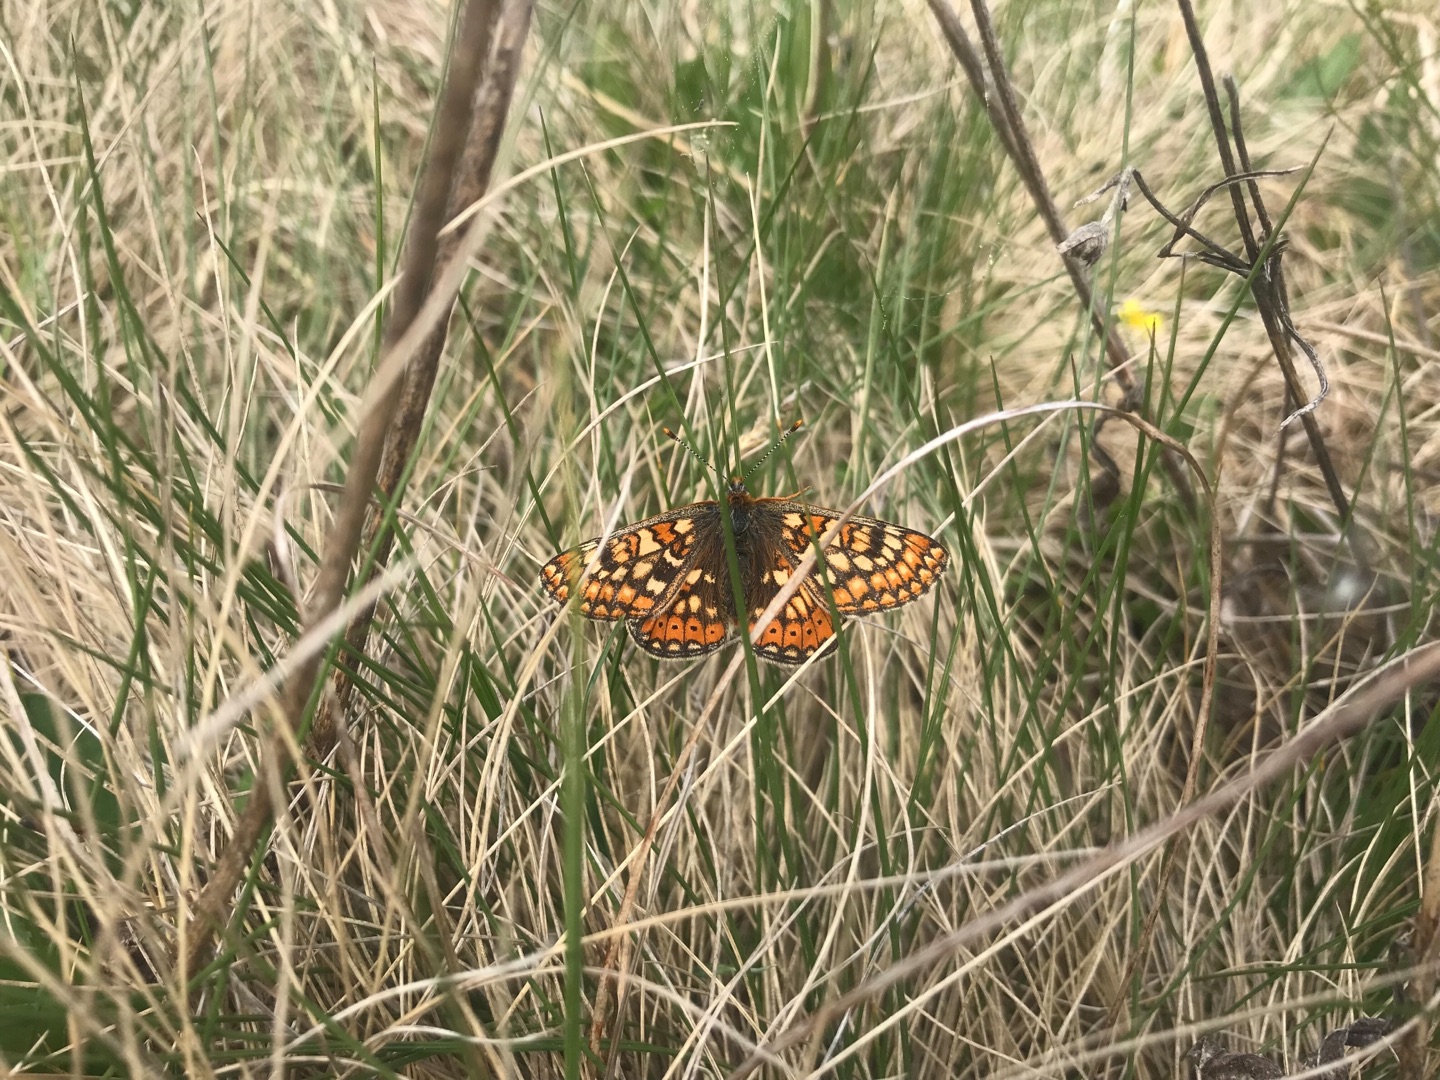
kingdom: Animalia
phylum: Arthropoda
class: Insecta
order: Lepidoptera
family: Nymphalidae
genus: Euphydryas
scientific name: Euphydryas aurinia
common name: Hedepletvinge
